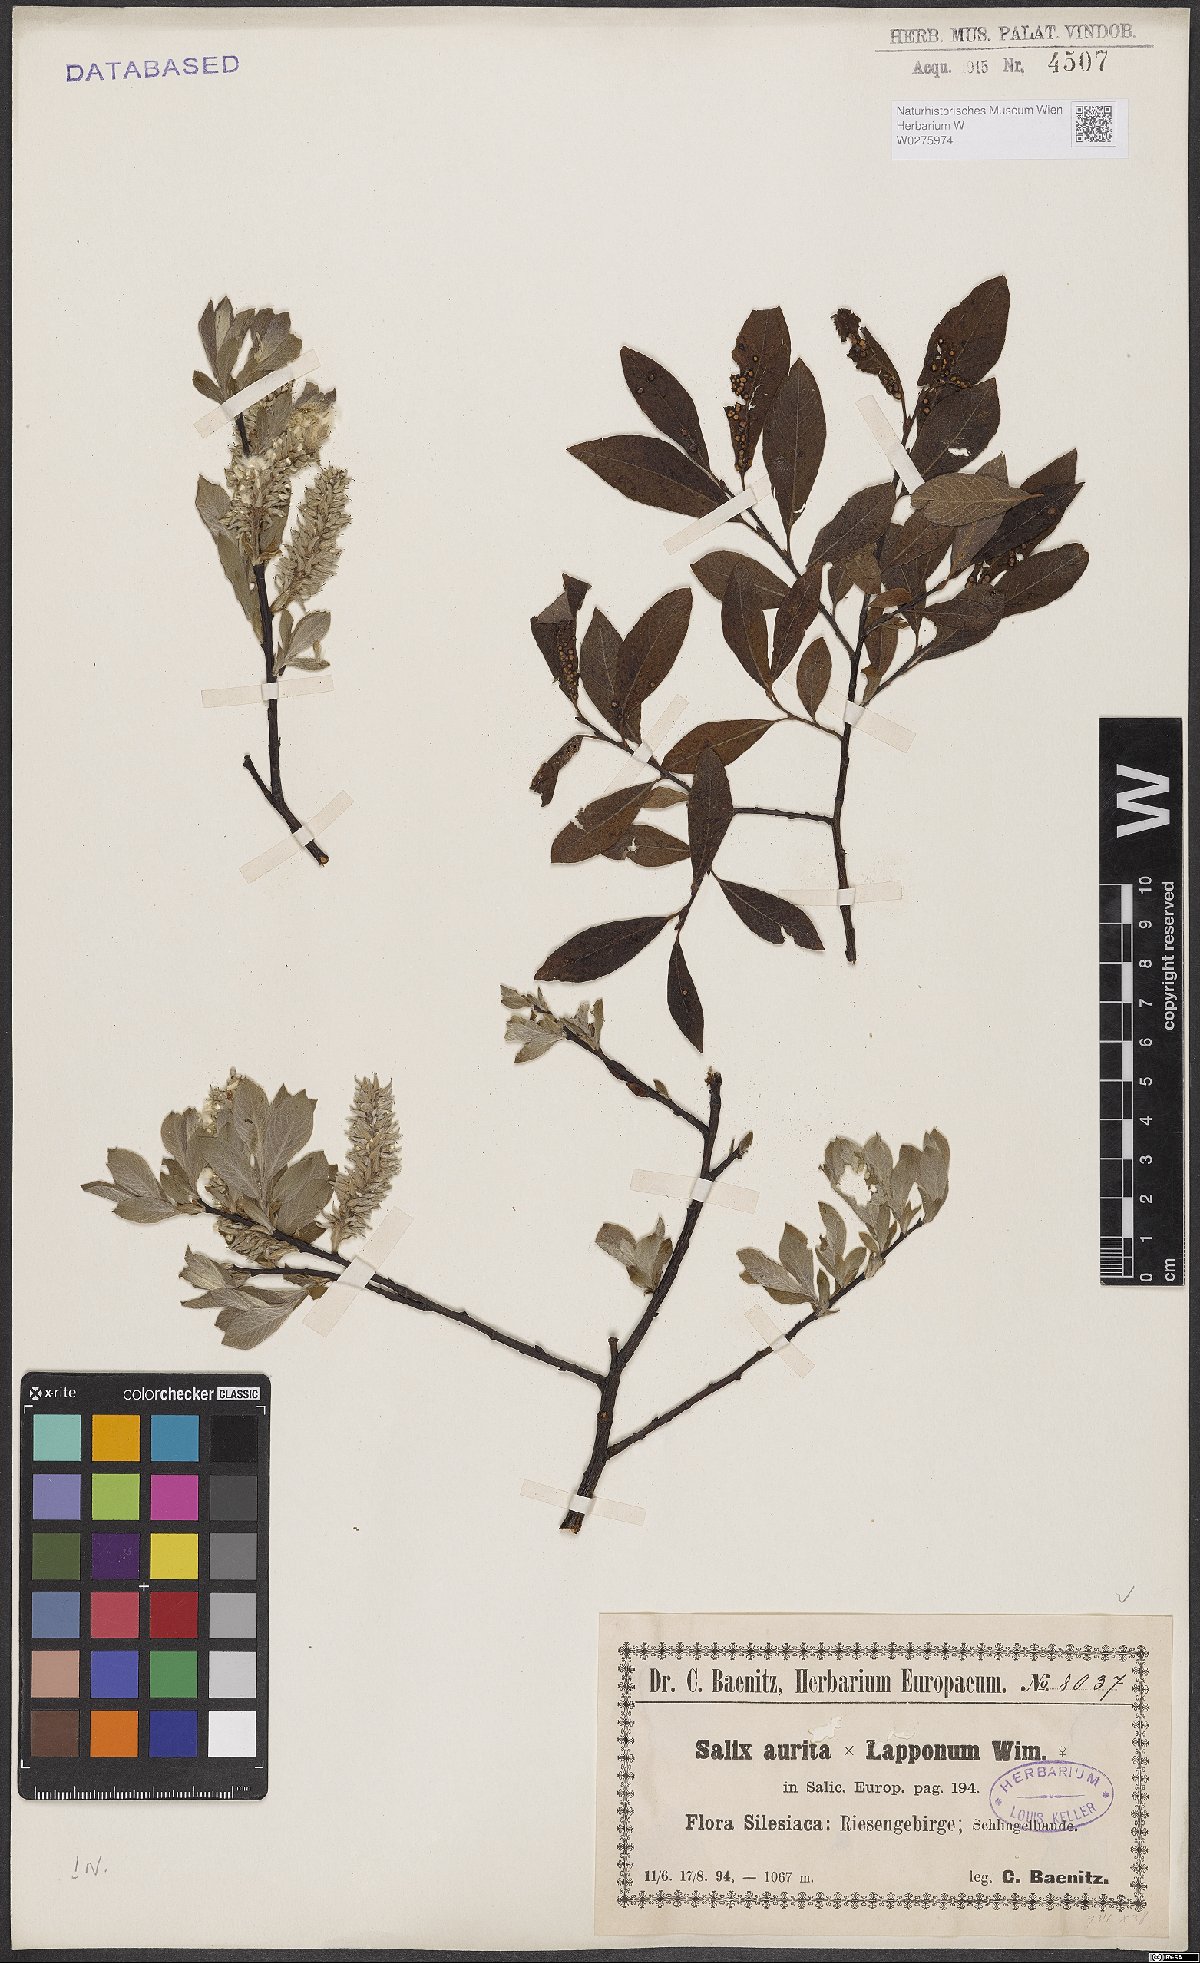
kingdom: Plantae
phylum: Tracheophyta
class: Magnoliopsida
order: Malpighiales
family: Salicaceae
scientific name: Salicaceae
